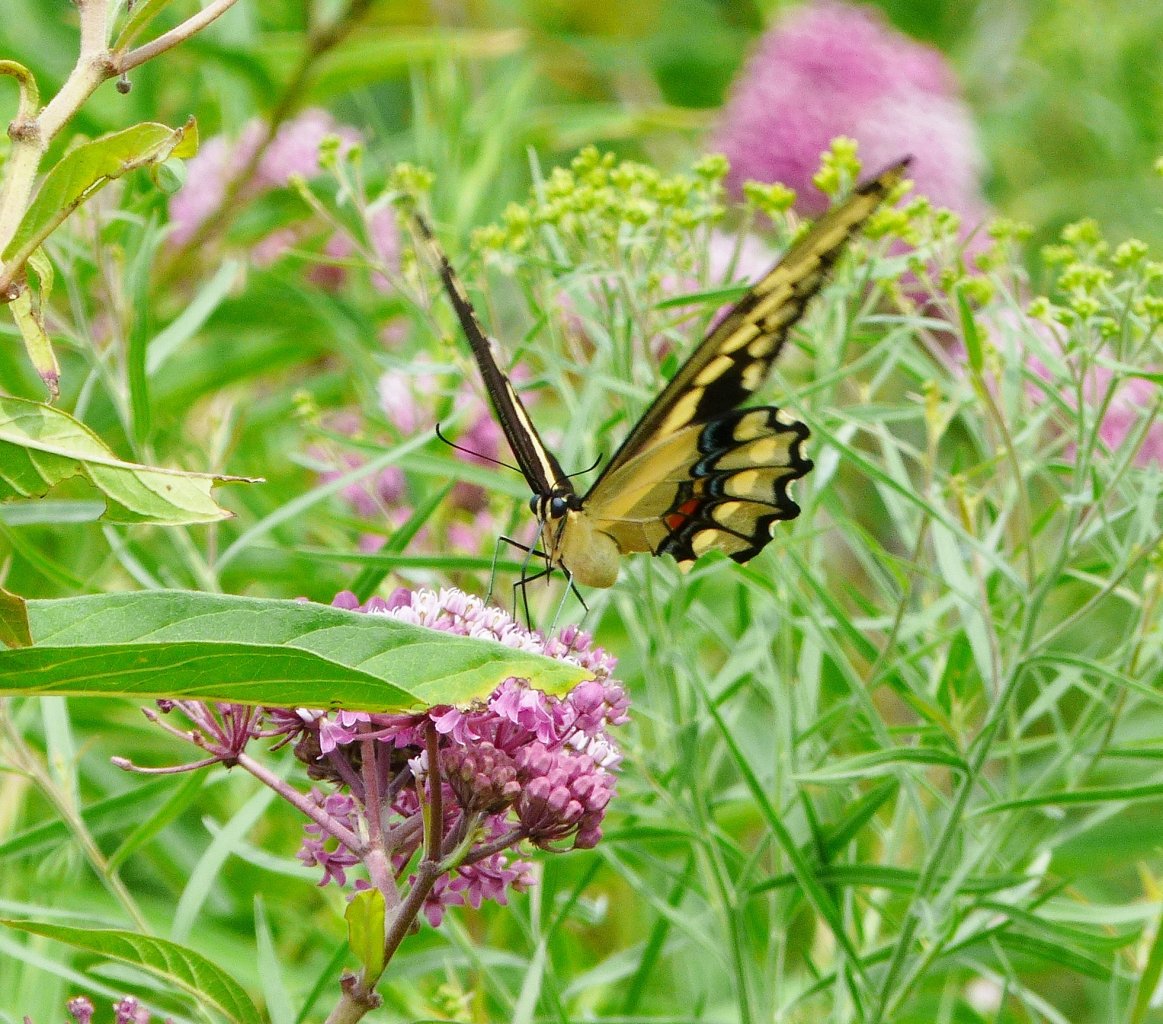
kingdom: Animalia
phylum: Arthropoda
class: Insecta
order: Lepidoptera
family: Papilionidae
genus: Papilio
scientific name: Papilio cresphontes
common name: Eastern Giant Swallowtail
